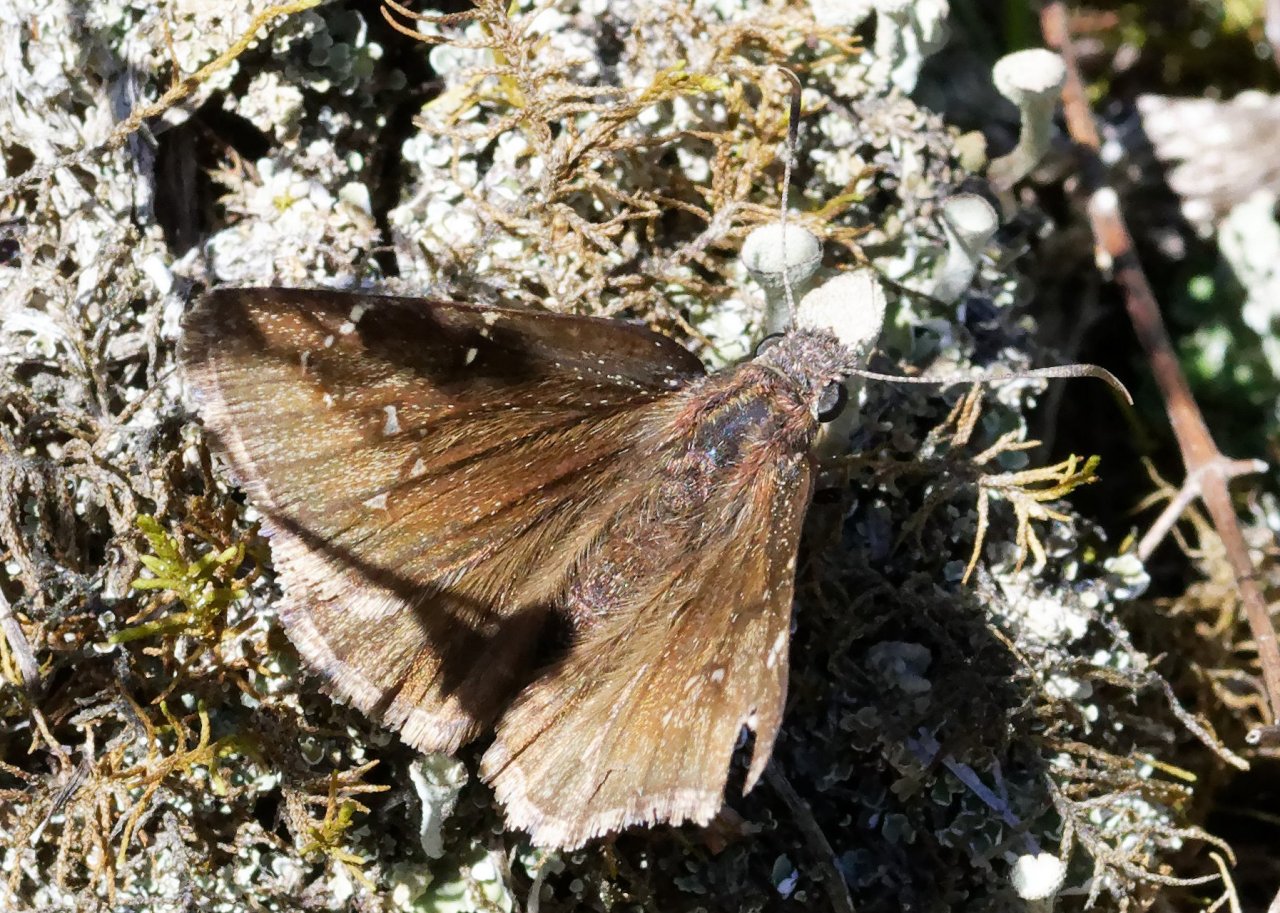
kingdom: Animalia
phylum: Arthropoda
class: Insecta
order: Lepidoptera
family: Hesperiidae
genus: Autochton
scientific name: Autochton
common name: Northern Cloudywing
